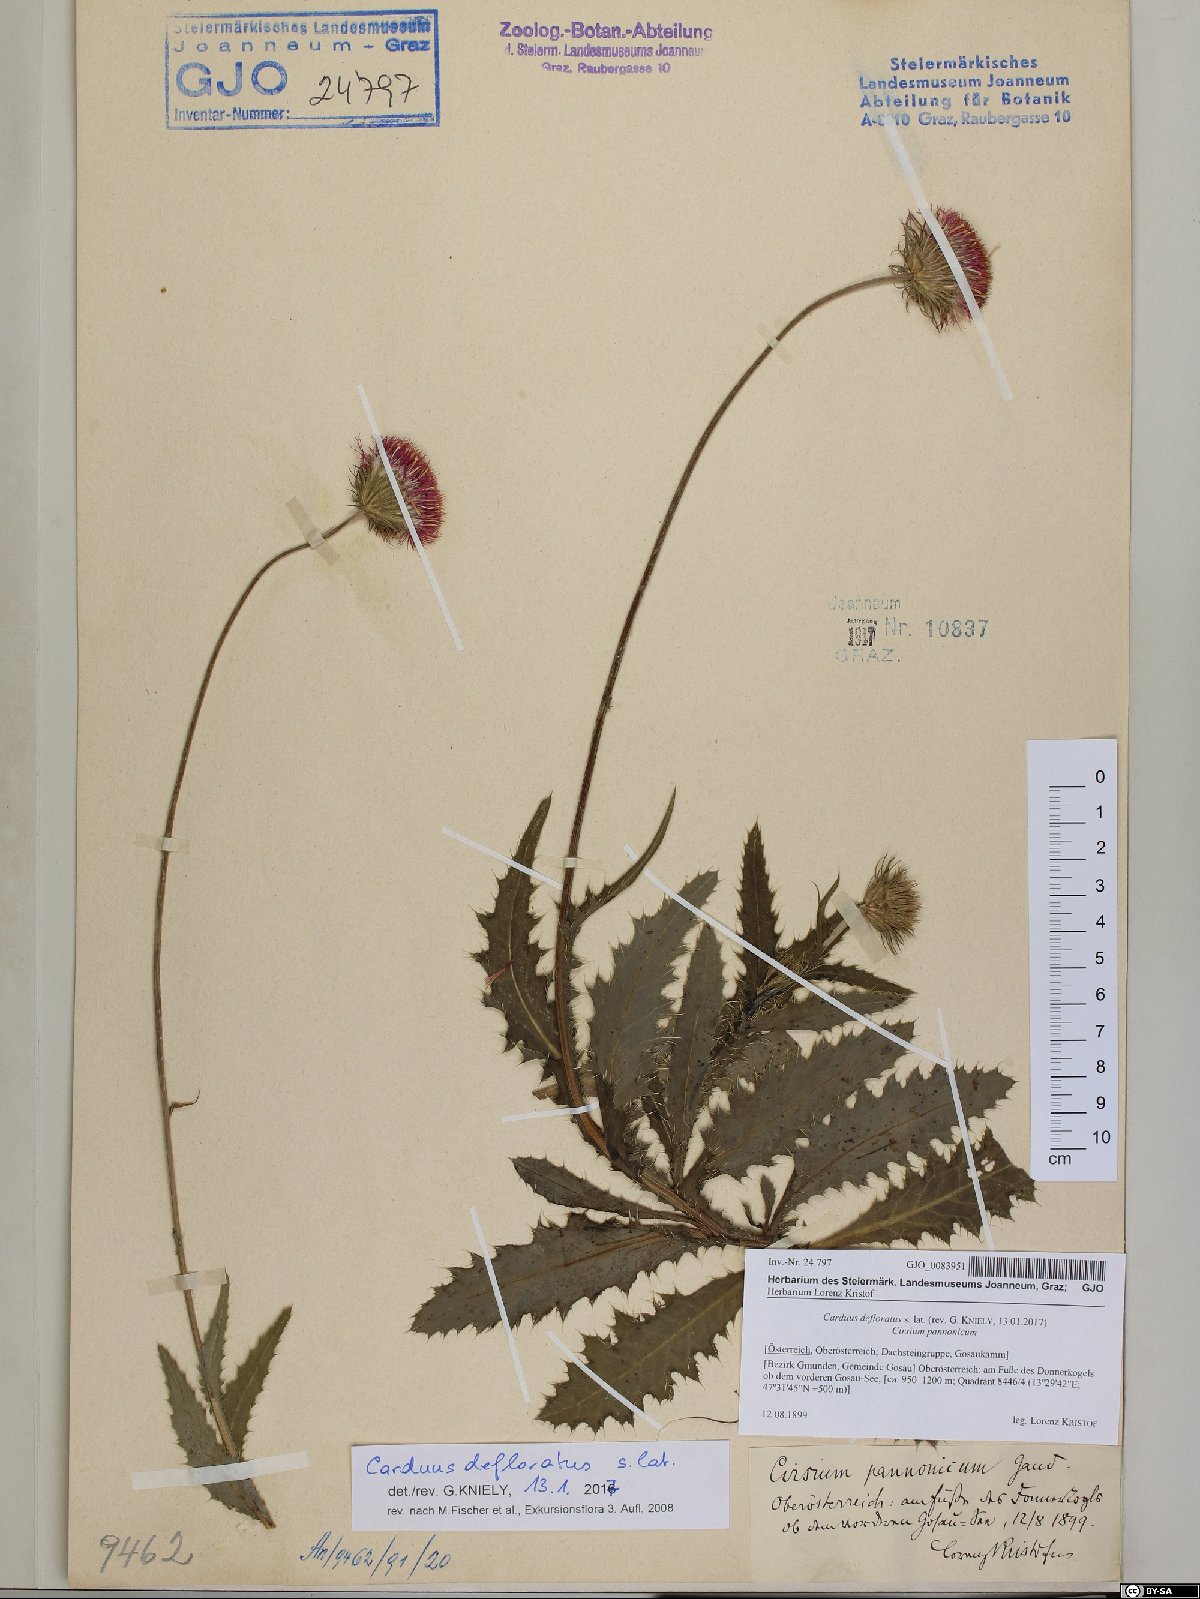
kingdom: Plantae
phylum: Tracheophyta
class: Magnoliopsida
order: Asterales
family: Asteraceae
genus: Carduus
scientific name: Carduus defloratus
